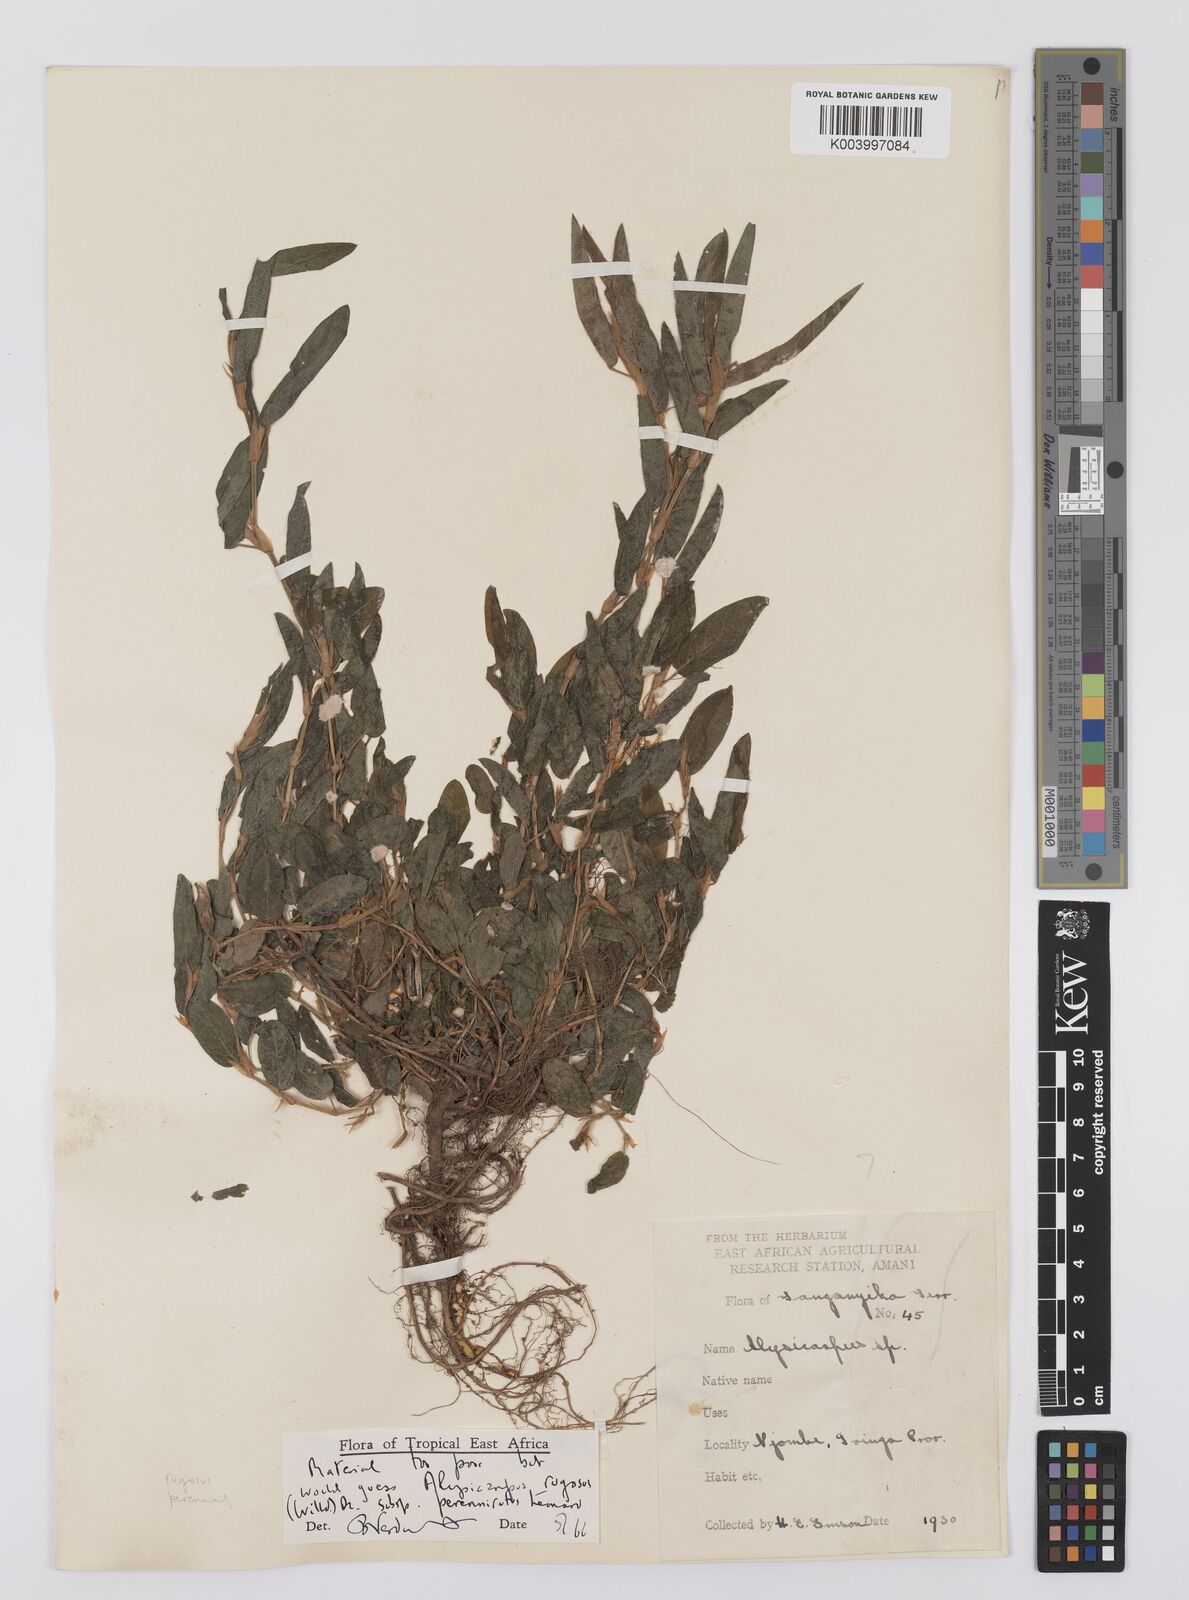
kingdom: Plantae
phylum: Tracheophyta
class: Magnoliopsida
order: Fabales
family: Fabaceae
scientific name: Fabaceae
